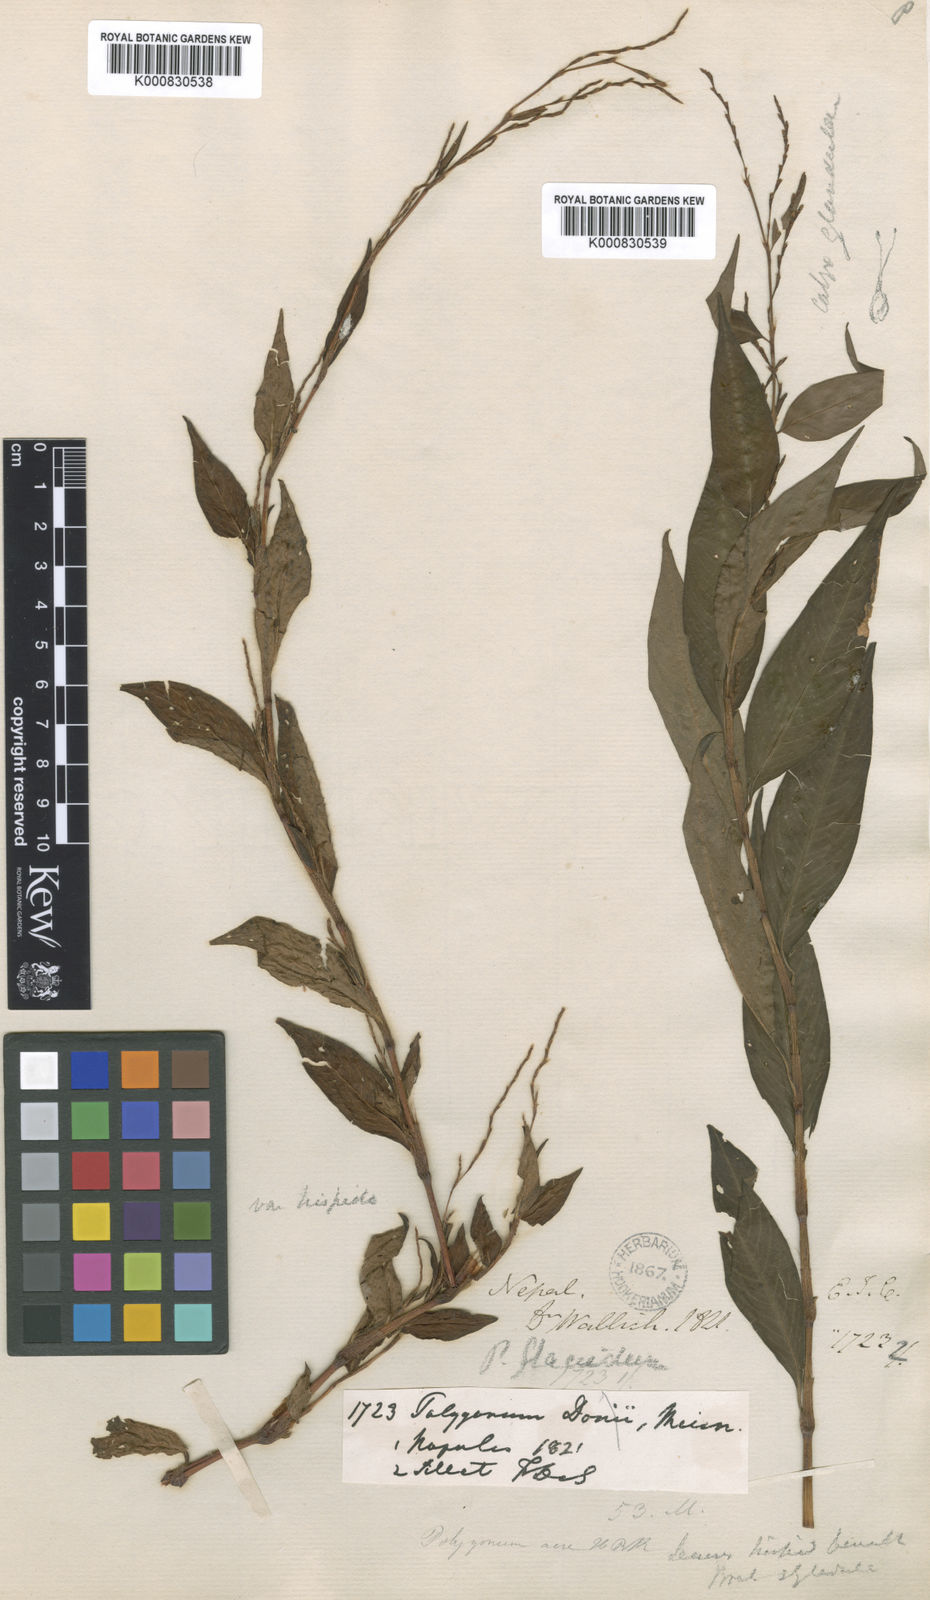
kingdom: Plantae
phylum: Tracheophyta
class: Magnoliopsida
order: Caryophyllales
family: Polygonaceae
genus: Polygonum
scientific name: Polygonum
